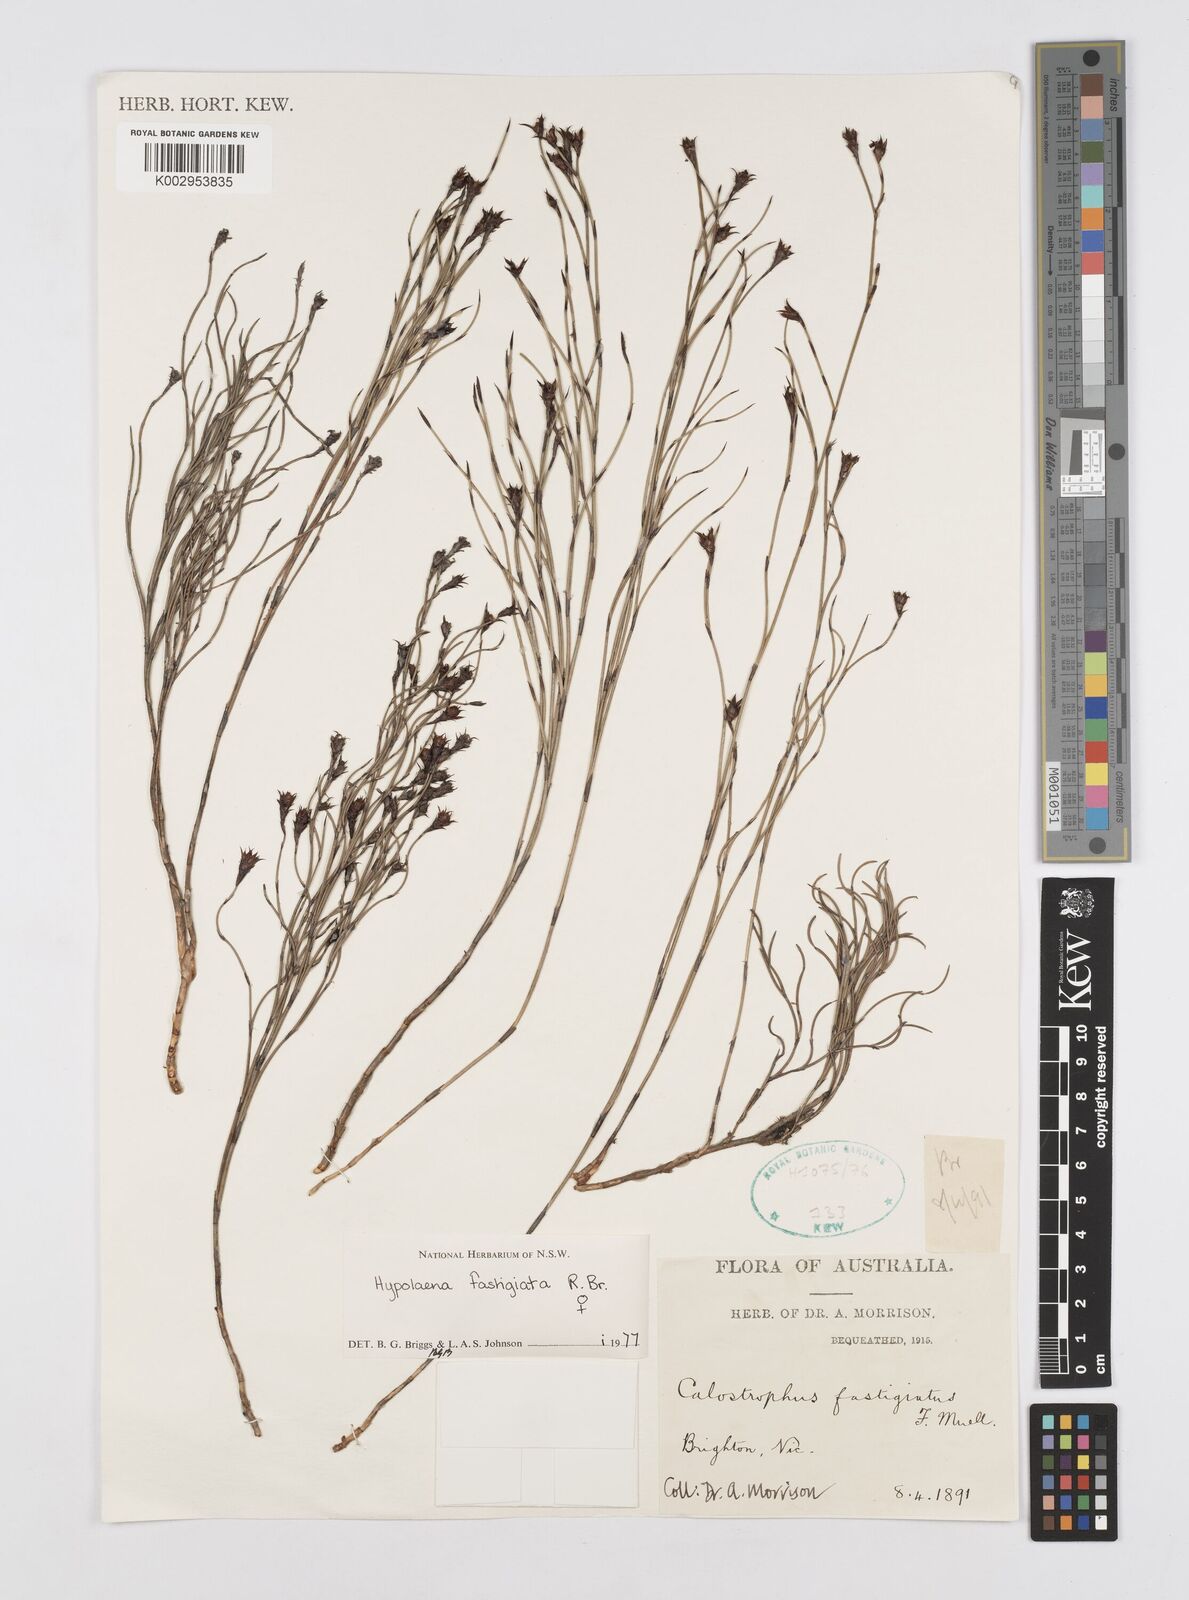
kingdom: Plantae
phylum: Tracheophyta
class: Liliopsida
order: Poales
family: Restionaceae
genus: Hypolaena
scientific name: Hypolaena fastigiata
